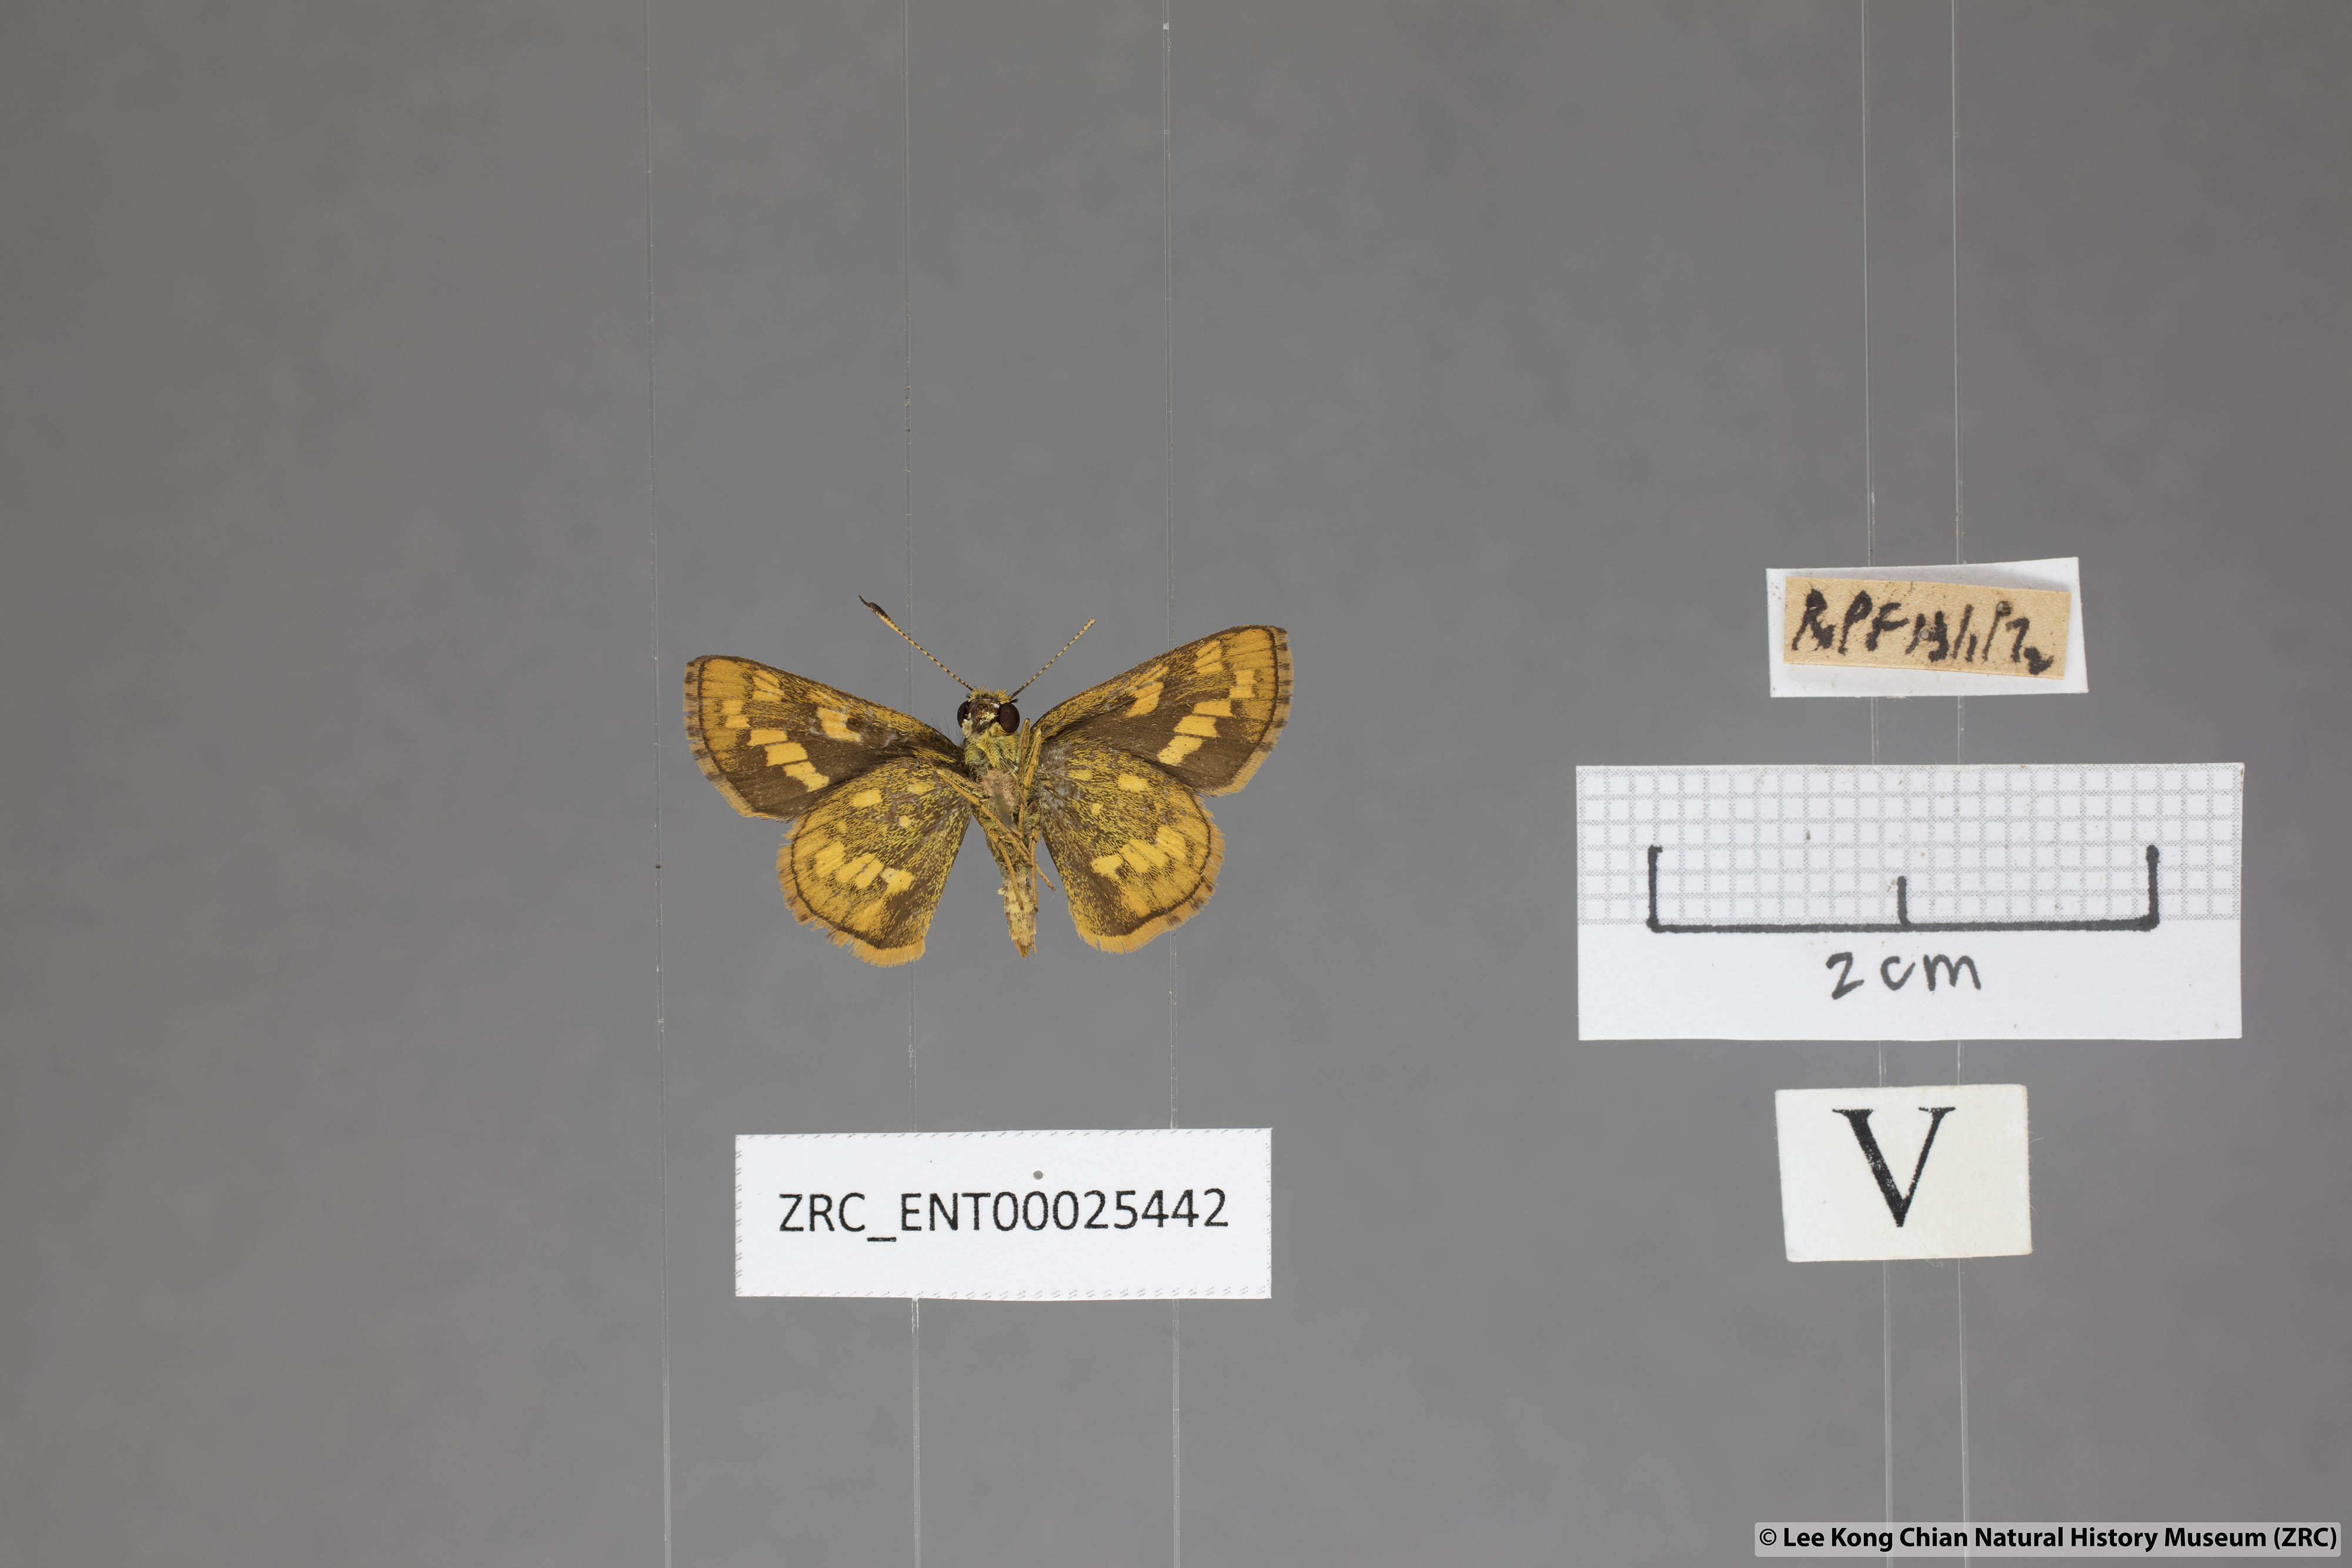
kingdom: Animalia
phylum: Arthropoda
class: Insecta
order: Lepidoptera
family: Hesperiidae
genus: Potanthus
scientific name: Potanthus omaha
